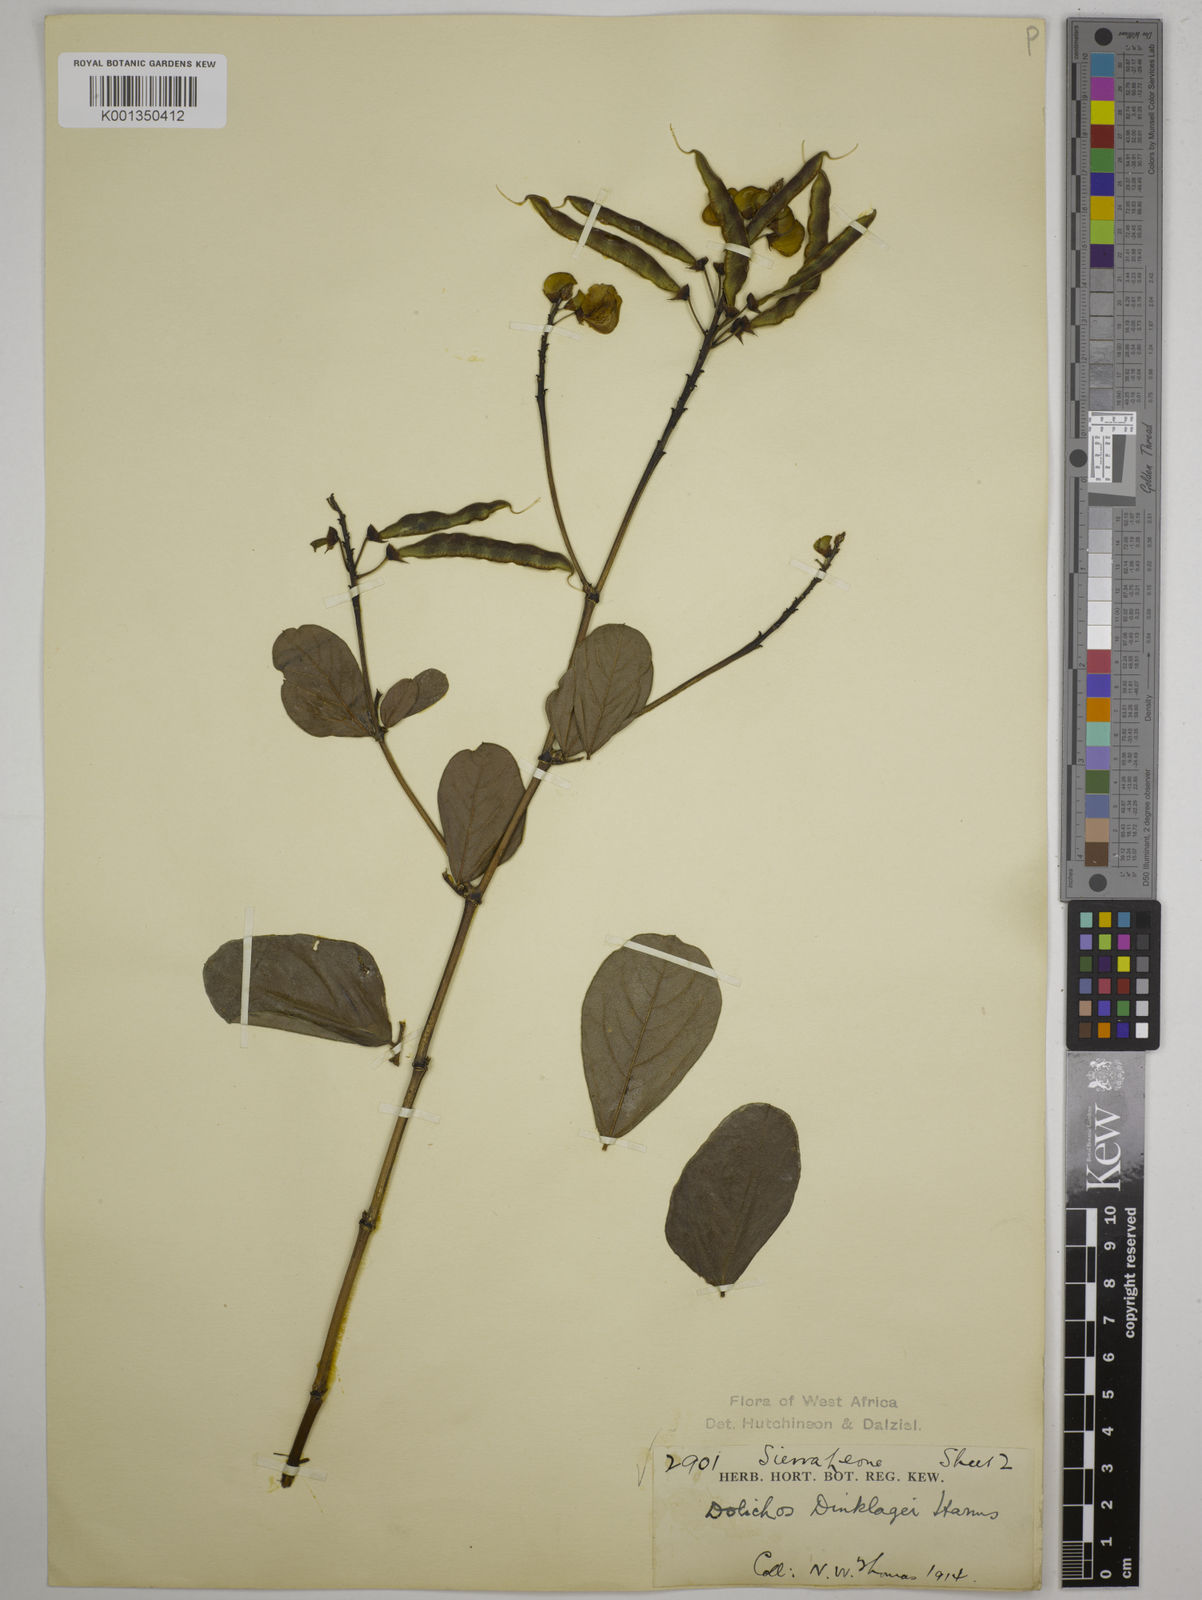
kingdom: Plantae
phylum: Tracheophyta
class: Magnoliopsida
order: Fabales
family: Fabaceae
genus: Dolichos
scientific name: Dolichos dinklagei
